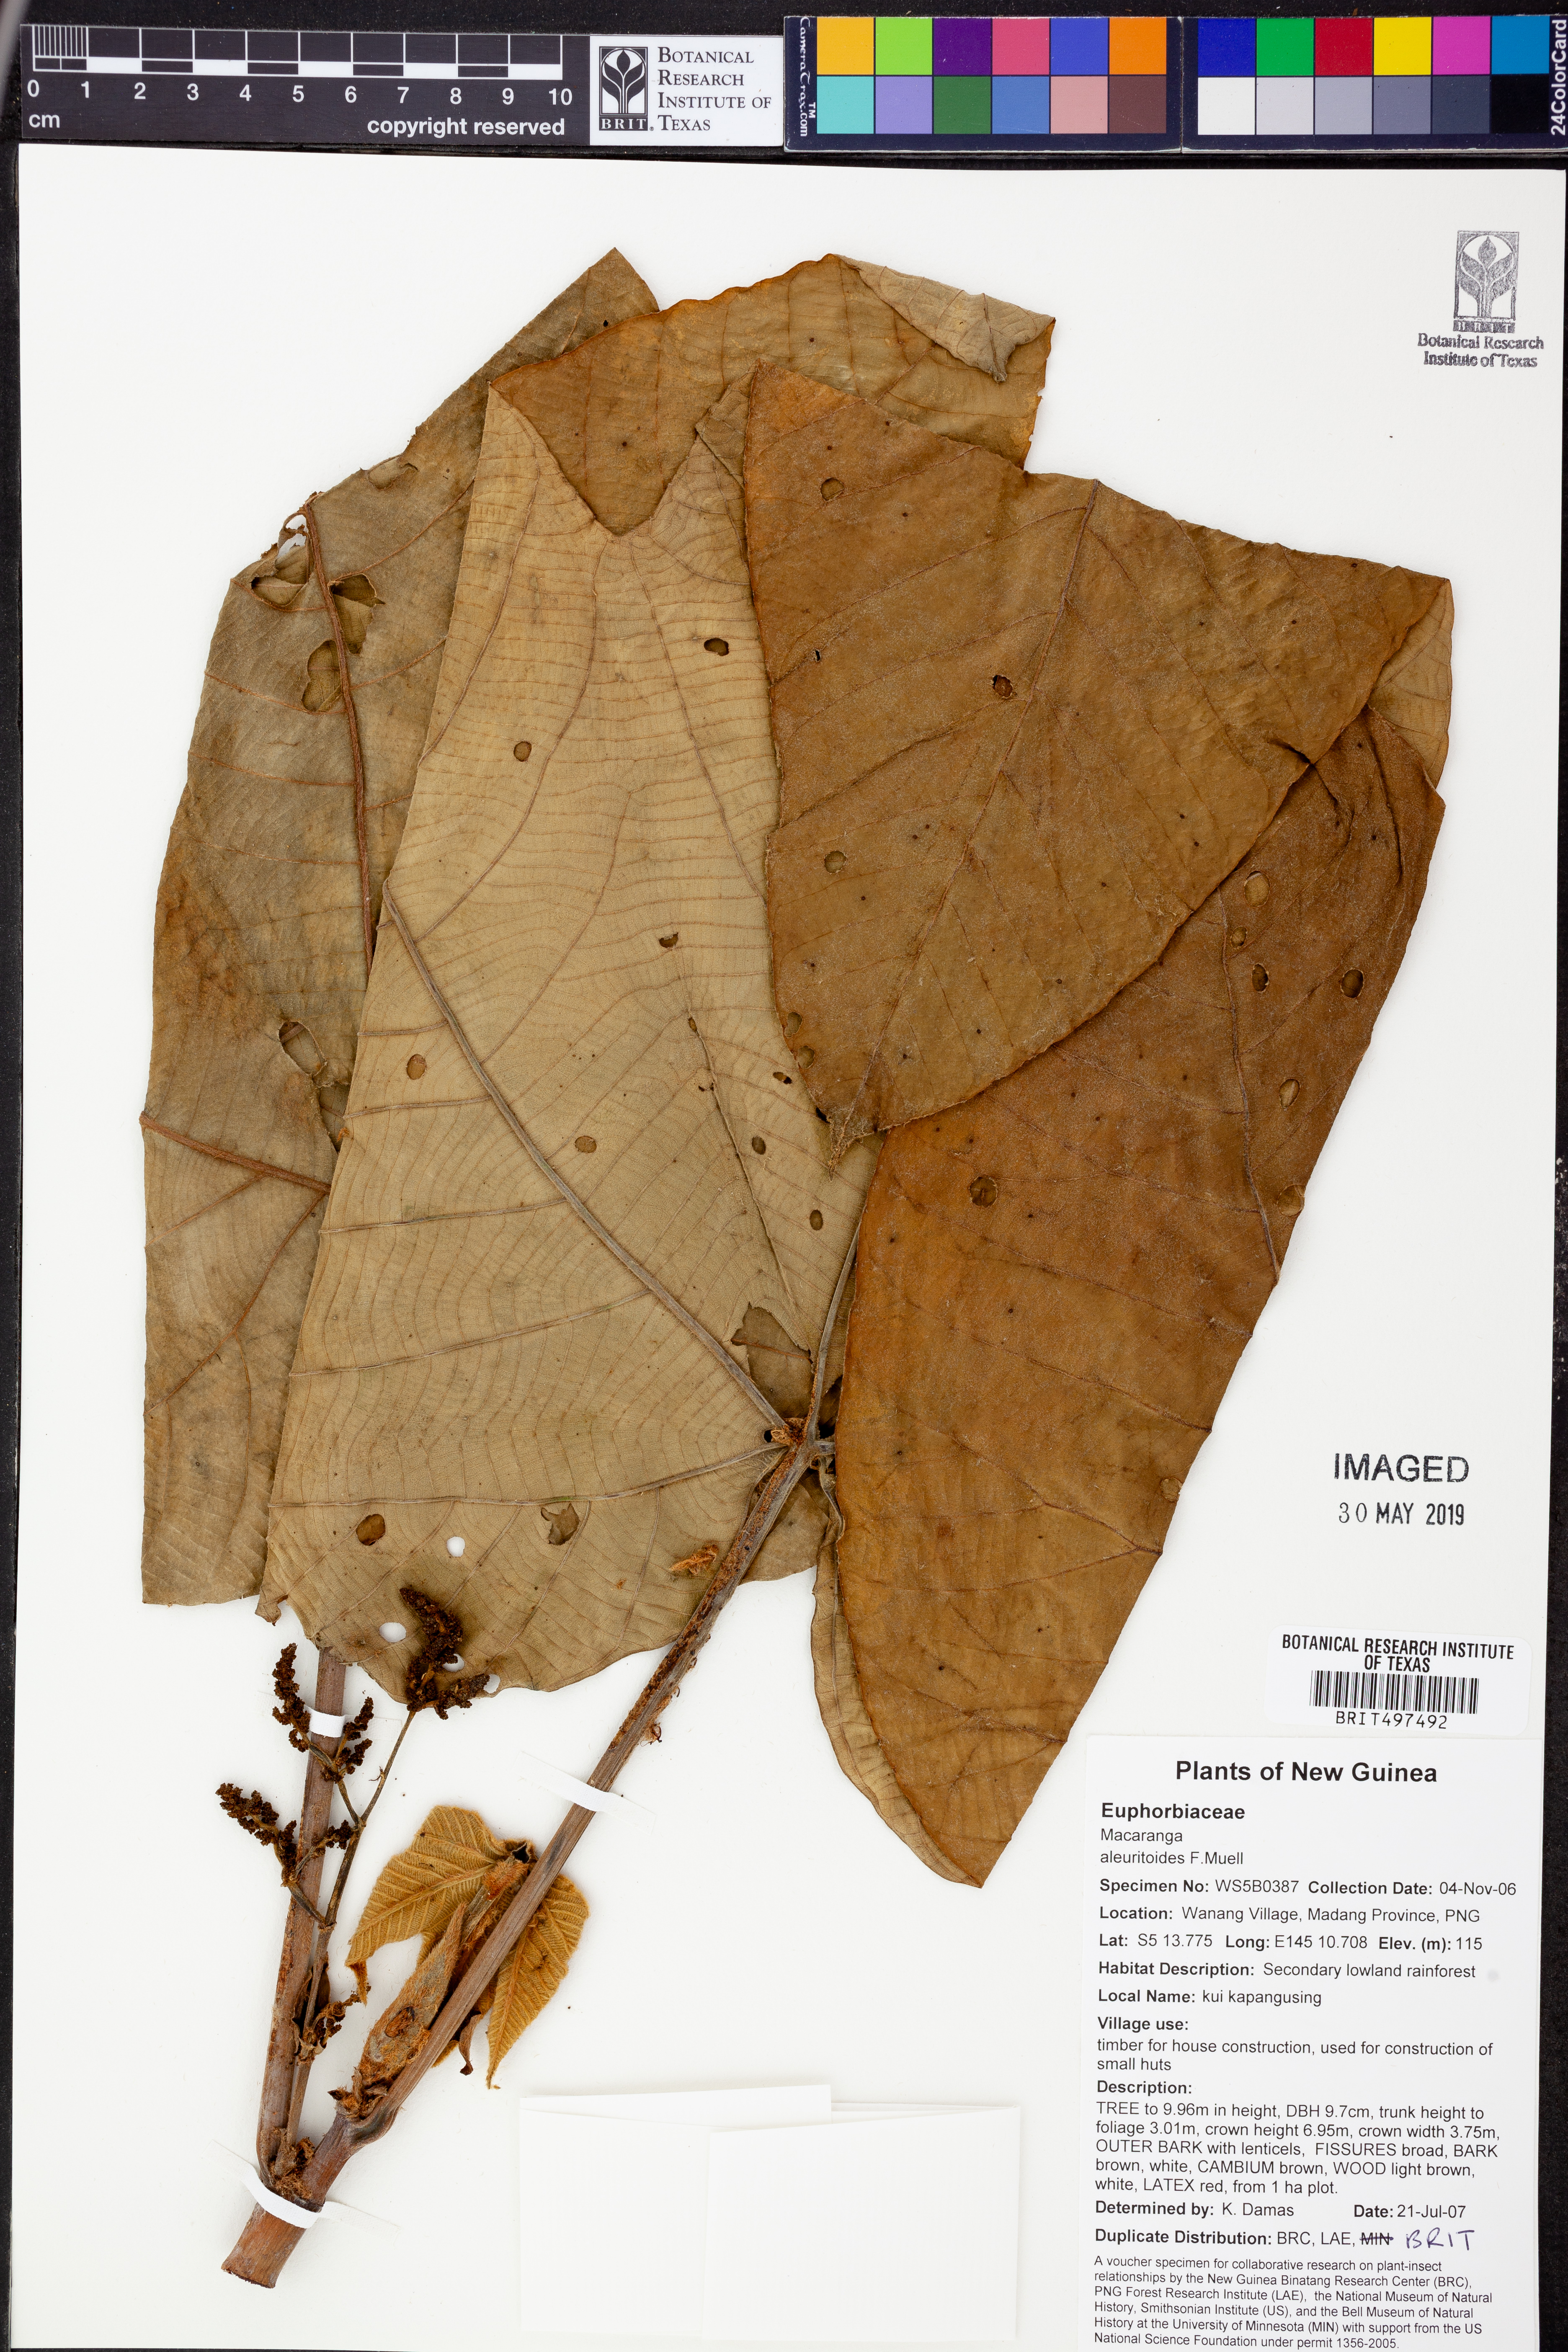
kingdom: Plantae
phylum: Tracheophyta
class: Magnoliopsida
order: Malpighiales
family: Euphorbiaceae
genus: Macaranga
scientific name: Macaranga aleuritoides
